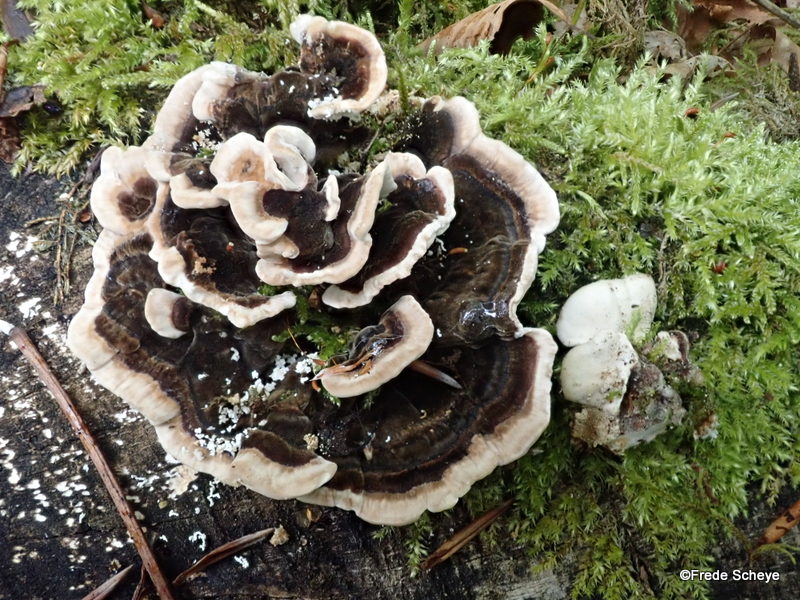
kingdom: Fungi
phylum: Basidiomycota
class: Agaricomycetes
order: Polyporales
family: Polyporaceae
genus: Trametes
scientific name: Trametes versicolor
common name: broget læderporesvamp
